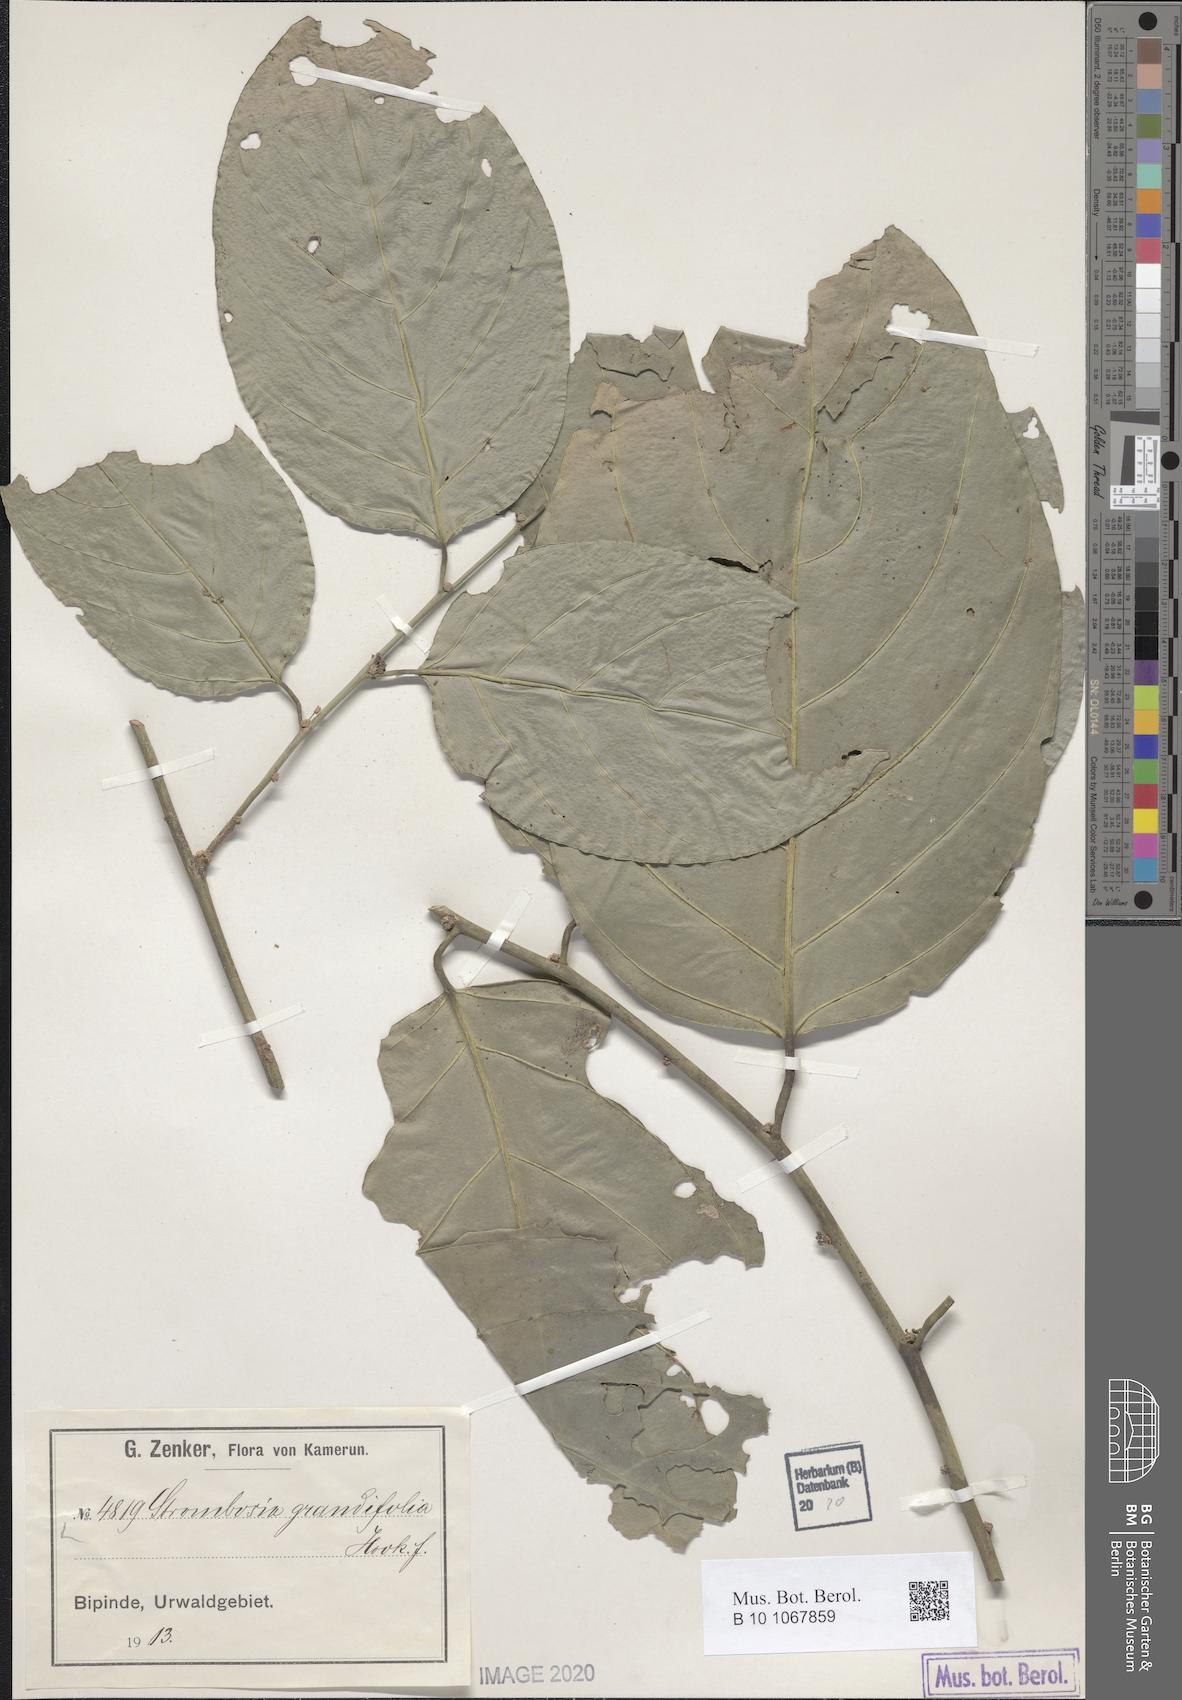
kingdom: Plantae
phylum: Tracheophyta
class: Magnoliopsida
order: Santalales
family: Strombosiaceae
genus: Strombosia
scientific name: Strombosia grandifolia
